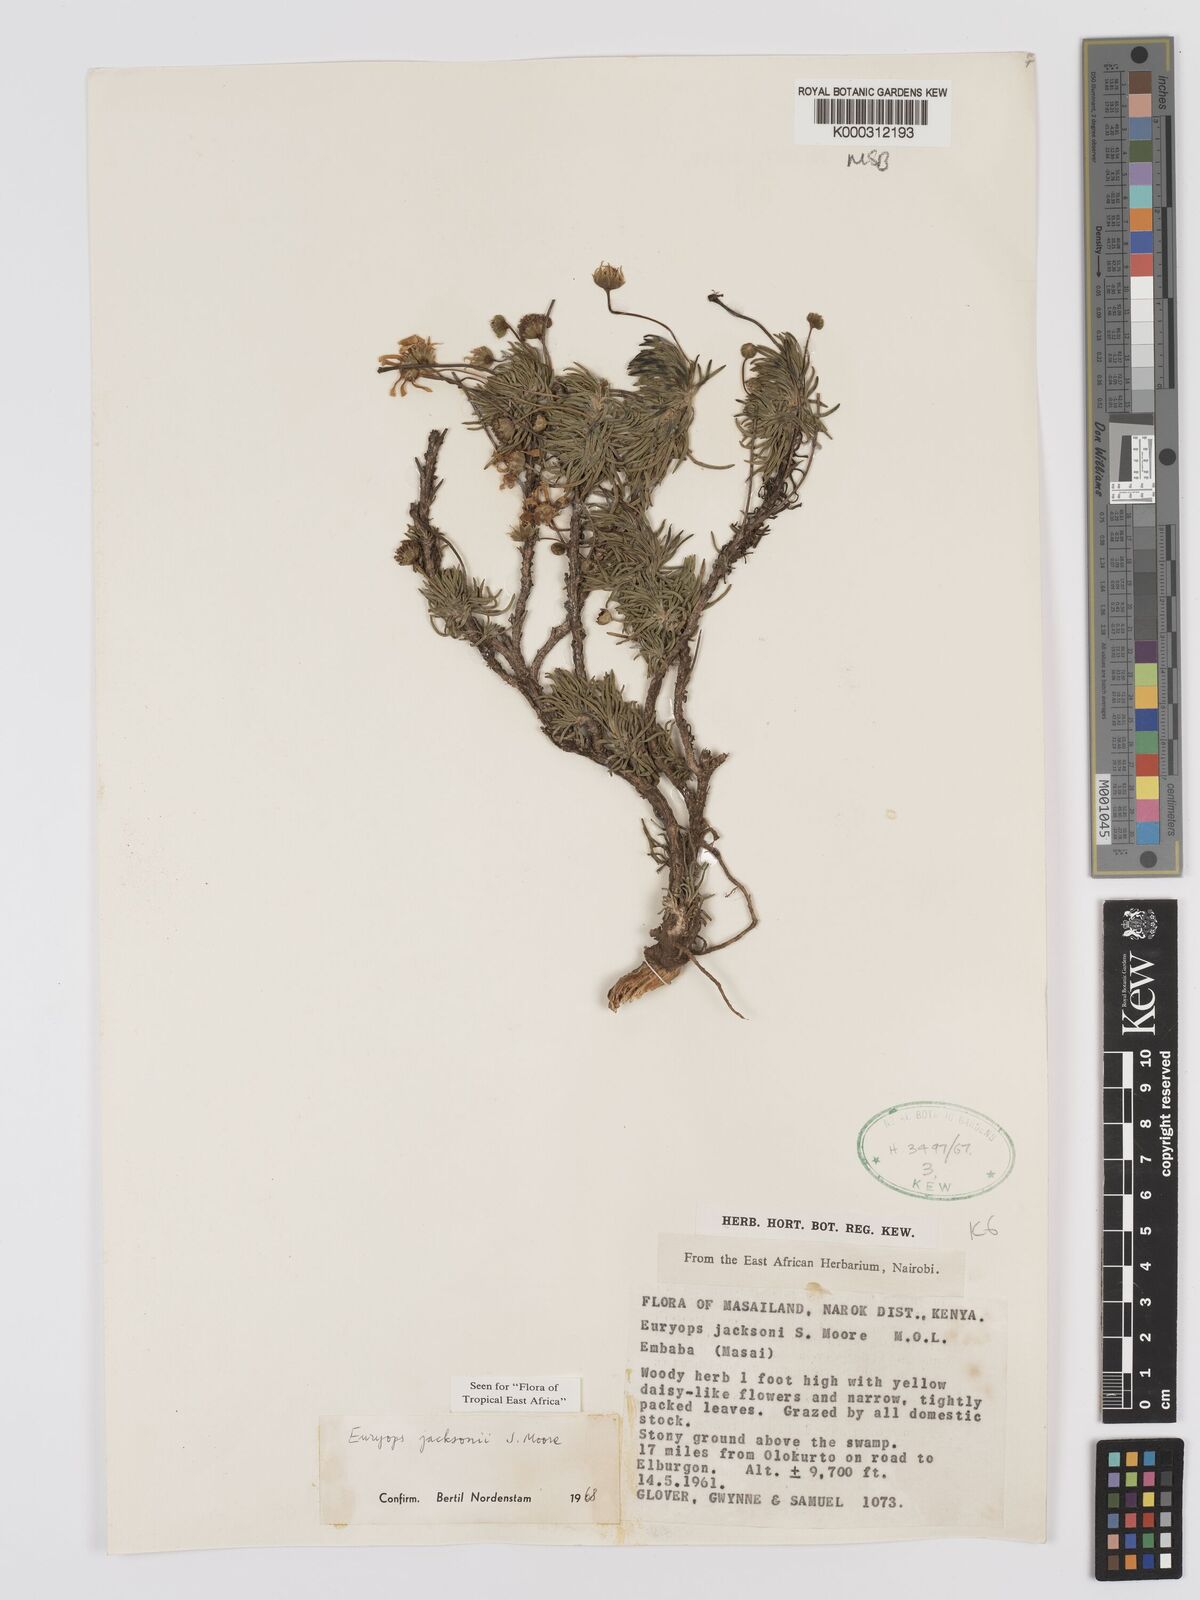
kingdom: Plantae
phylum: Tracheophyta
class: Magnoliopsida
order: Asterales
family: Asteraceae
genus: Euryops
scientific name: Euryops jacksonii
